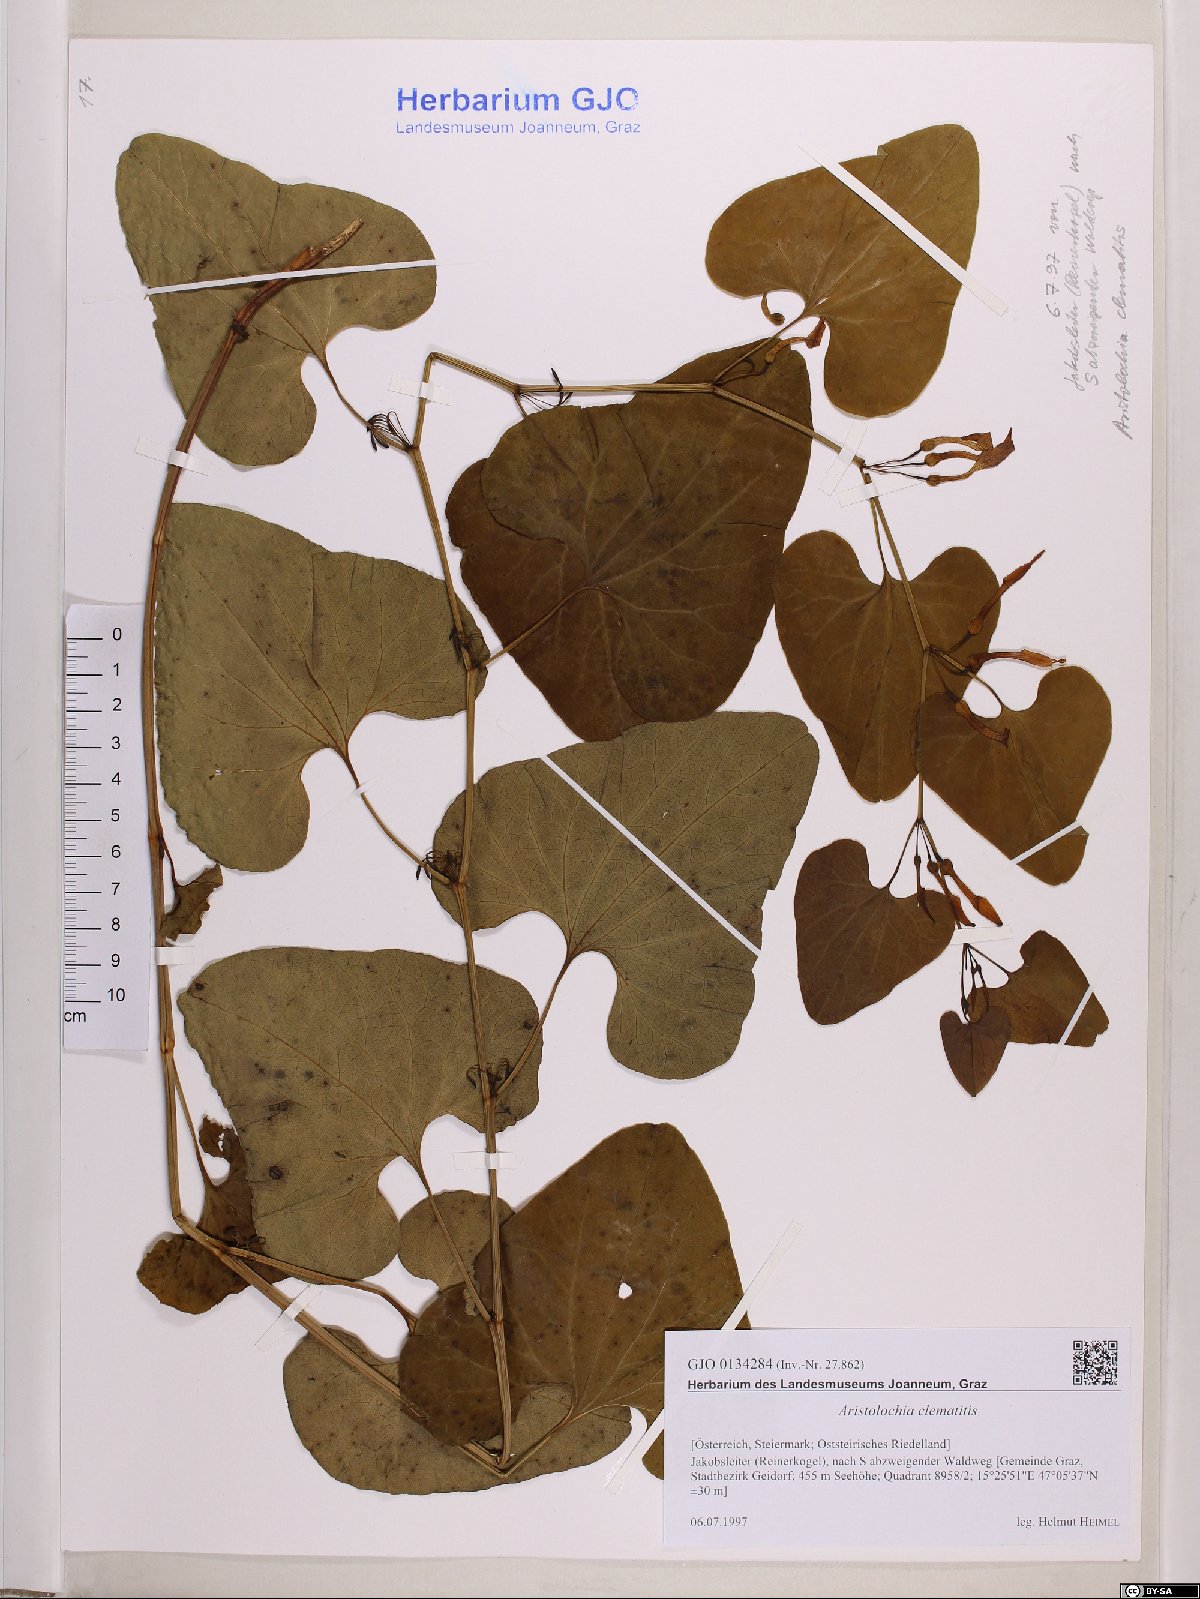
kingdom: Plantae
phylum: Tracheophyta
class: Magnoliopsida
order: Piperales
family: Aristolochiaceae
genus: Aristolochia
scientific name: Aristolochia clematitis
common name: Birthwort
